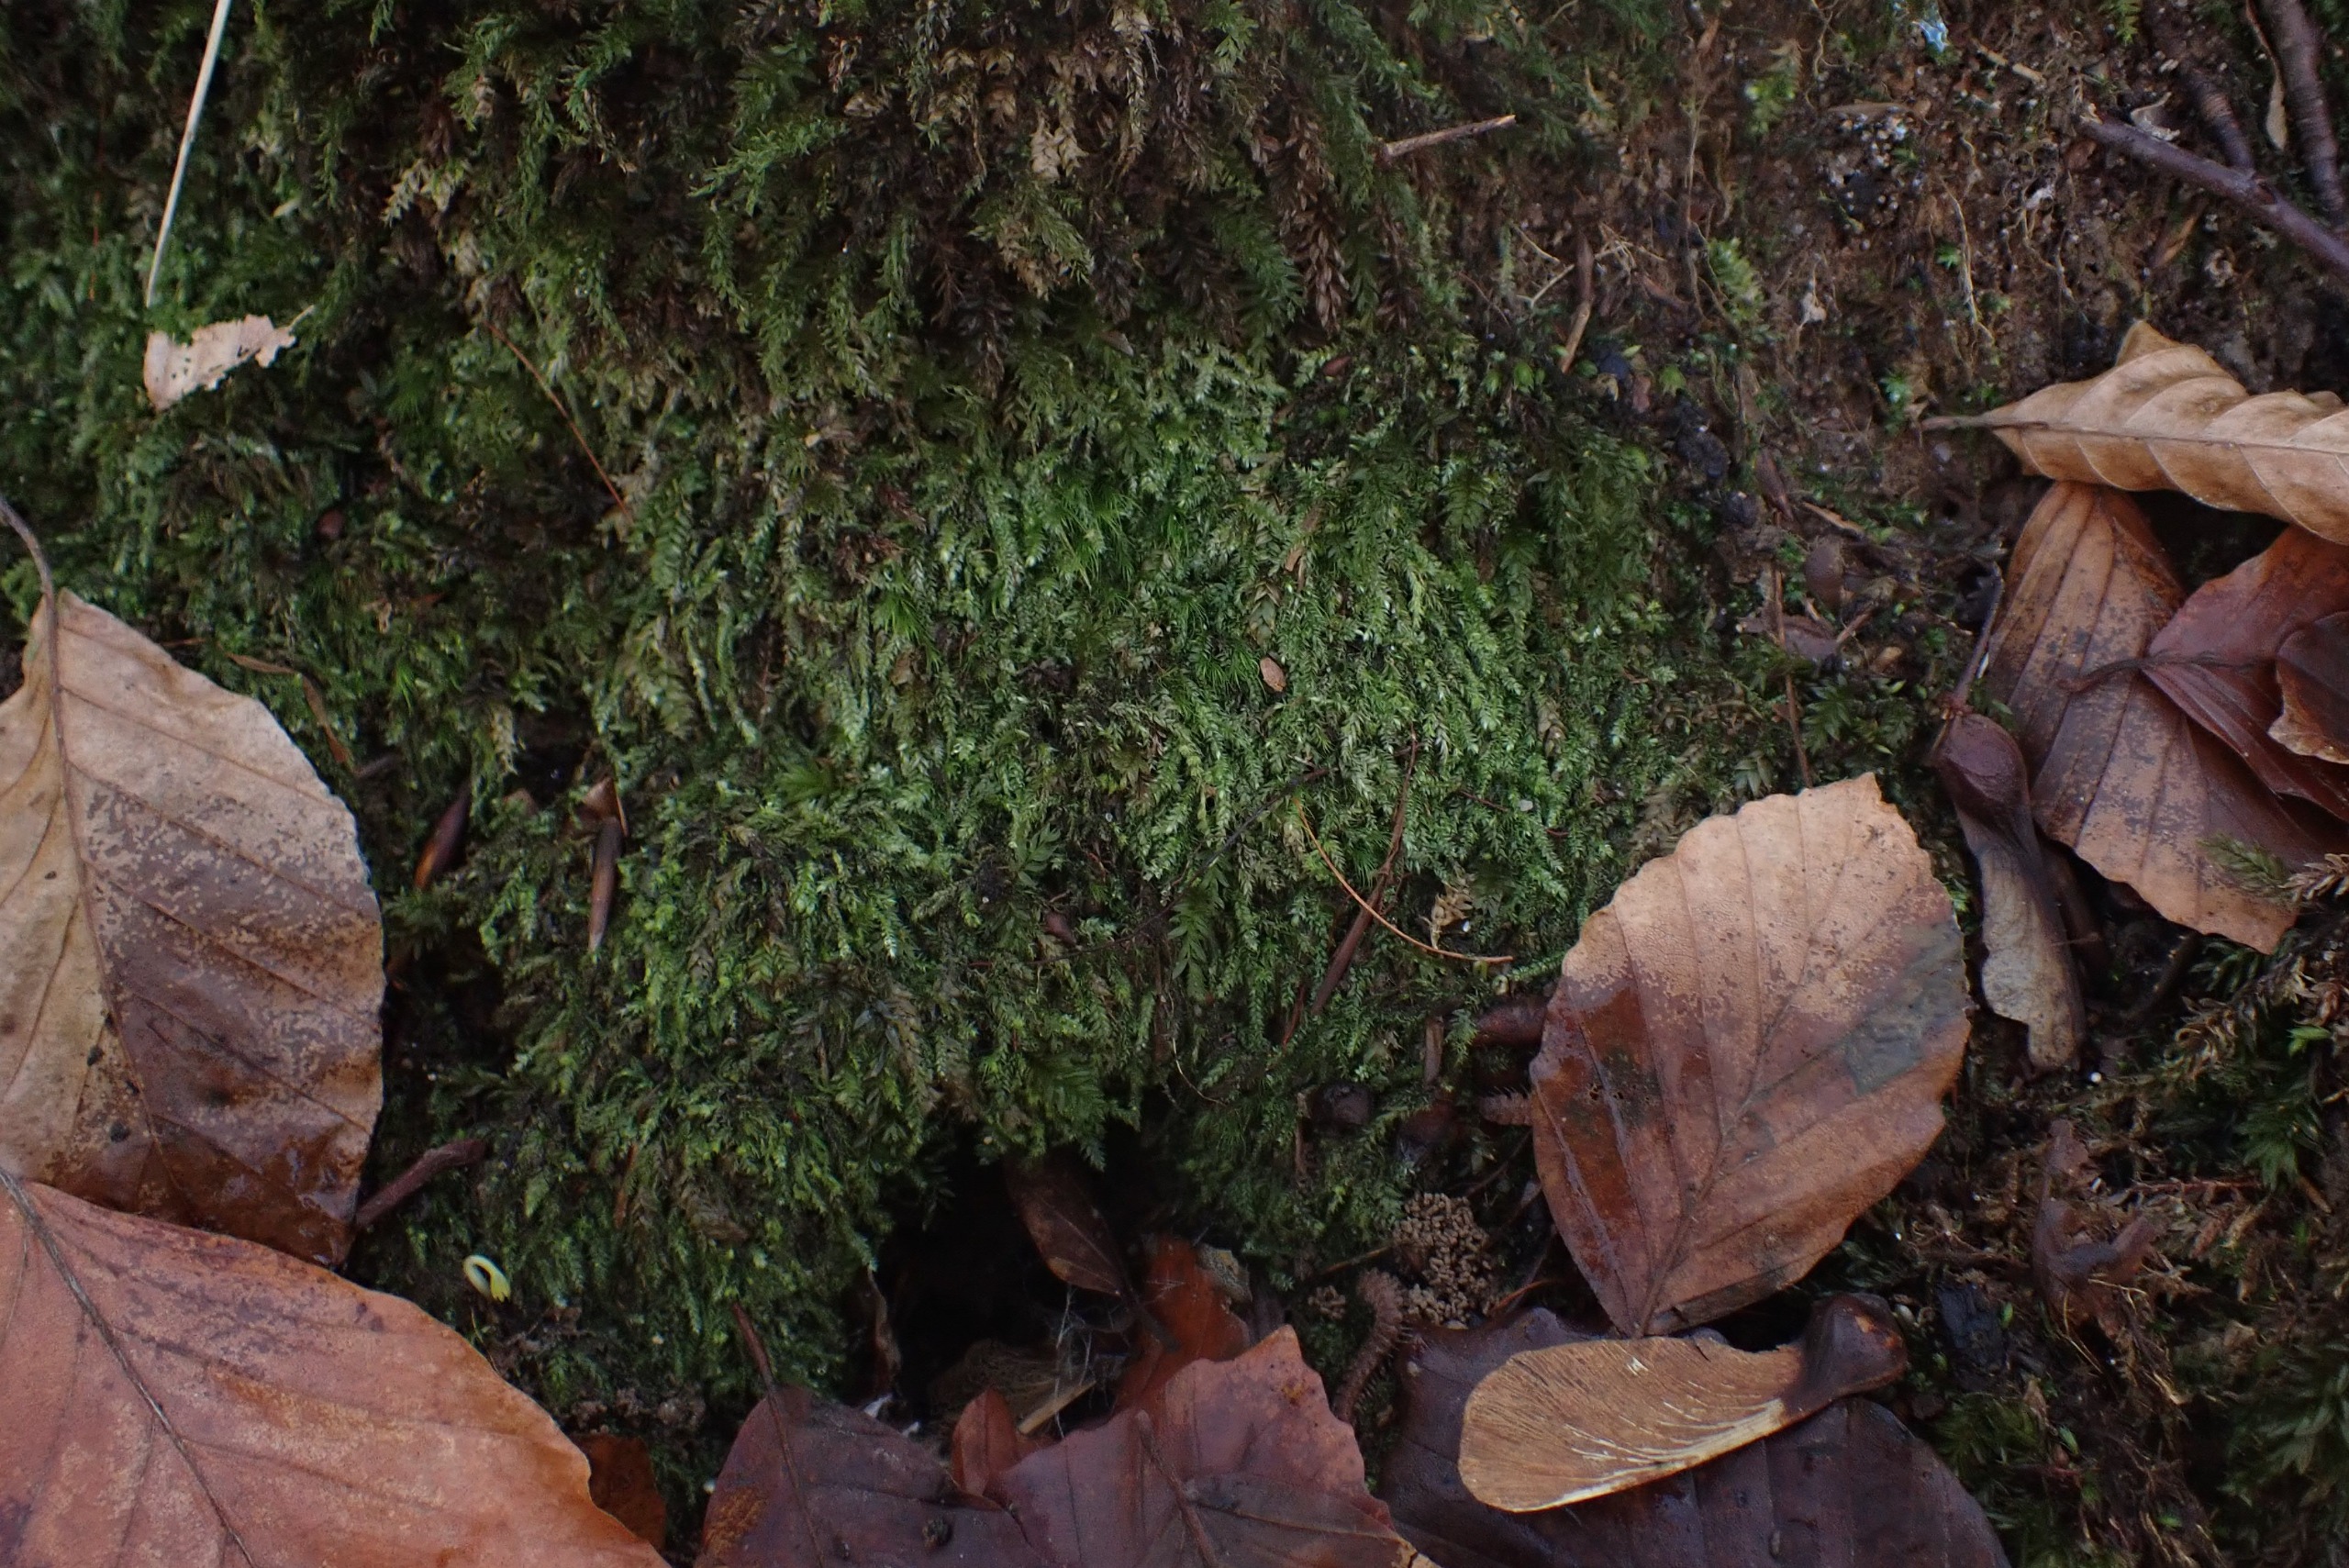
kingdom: Plantae
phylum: Bryophyta
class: Bryopsida
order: Hypnales
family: Plagiotheciaceae
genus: Pseudotaxiphyllum
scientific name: Pseudotaxiphyllum elegans
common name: Skinnende ynglegren
